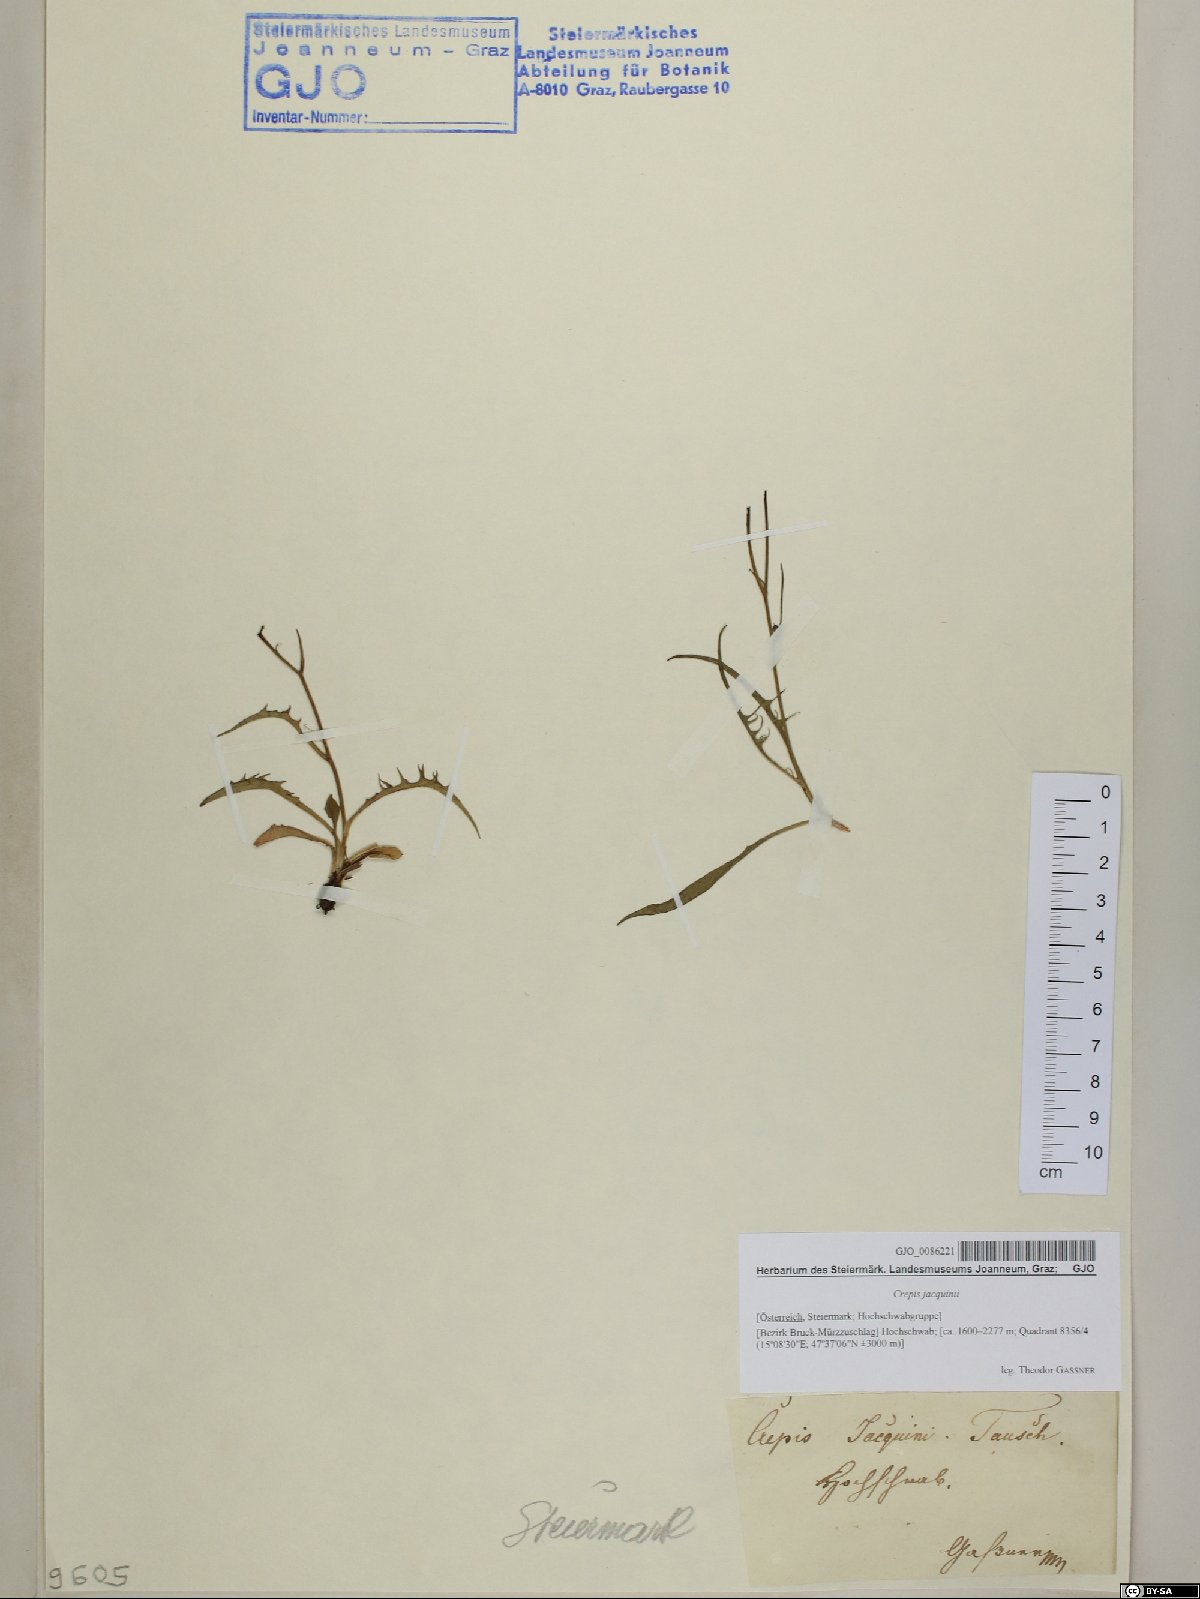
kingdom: Plantae
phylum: Tracheophyta
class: Magnoliopsida
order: Asterales
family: Asteraceae
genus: Crepis
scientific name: Crepis jacquinii
